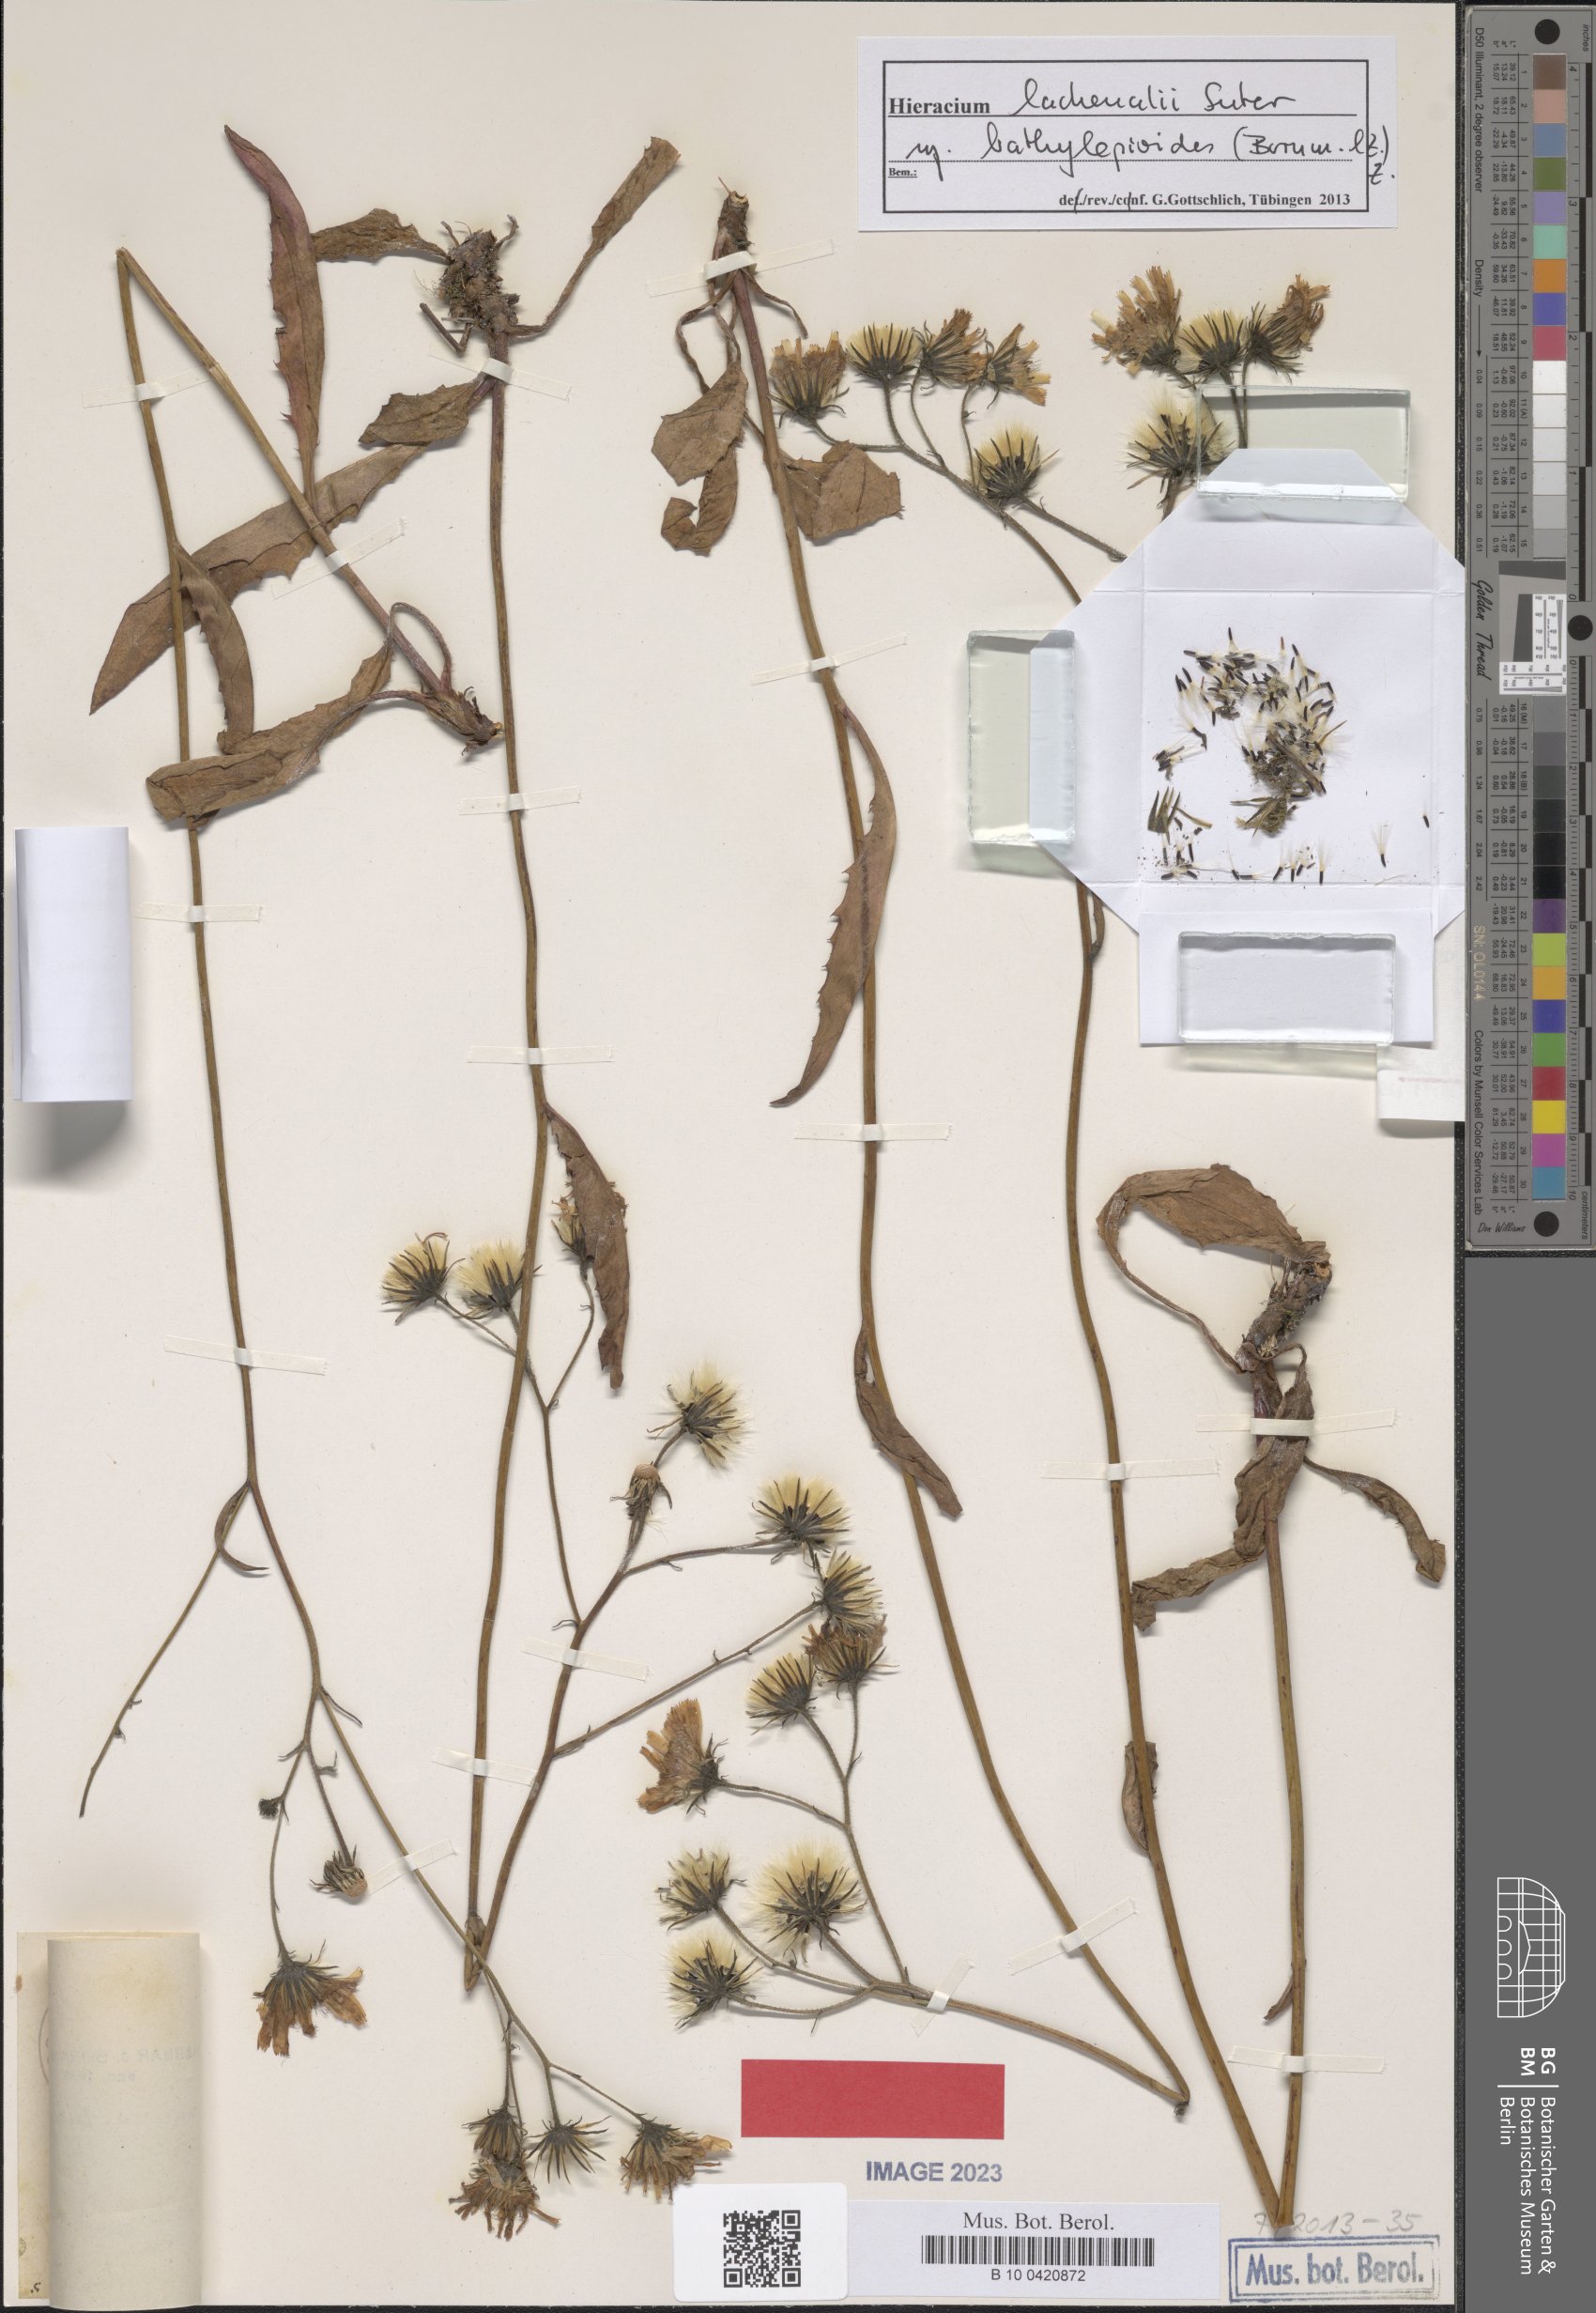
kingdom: Plantae
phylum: Tracheophyta
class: Magnoliopsida
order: Asterales
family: Asteraceae
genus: Hieracium
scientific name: Hieracium lachenalii
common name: Common hawkweed
